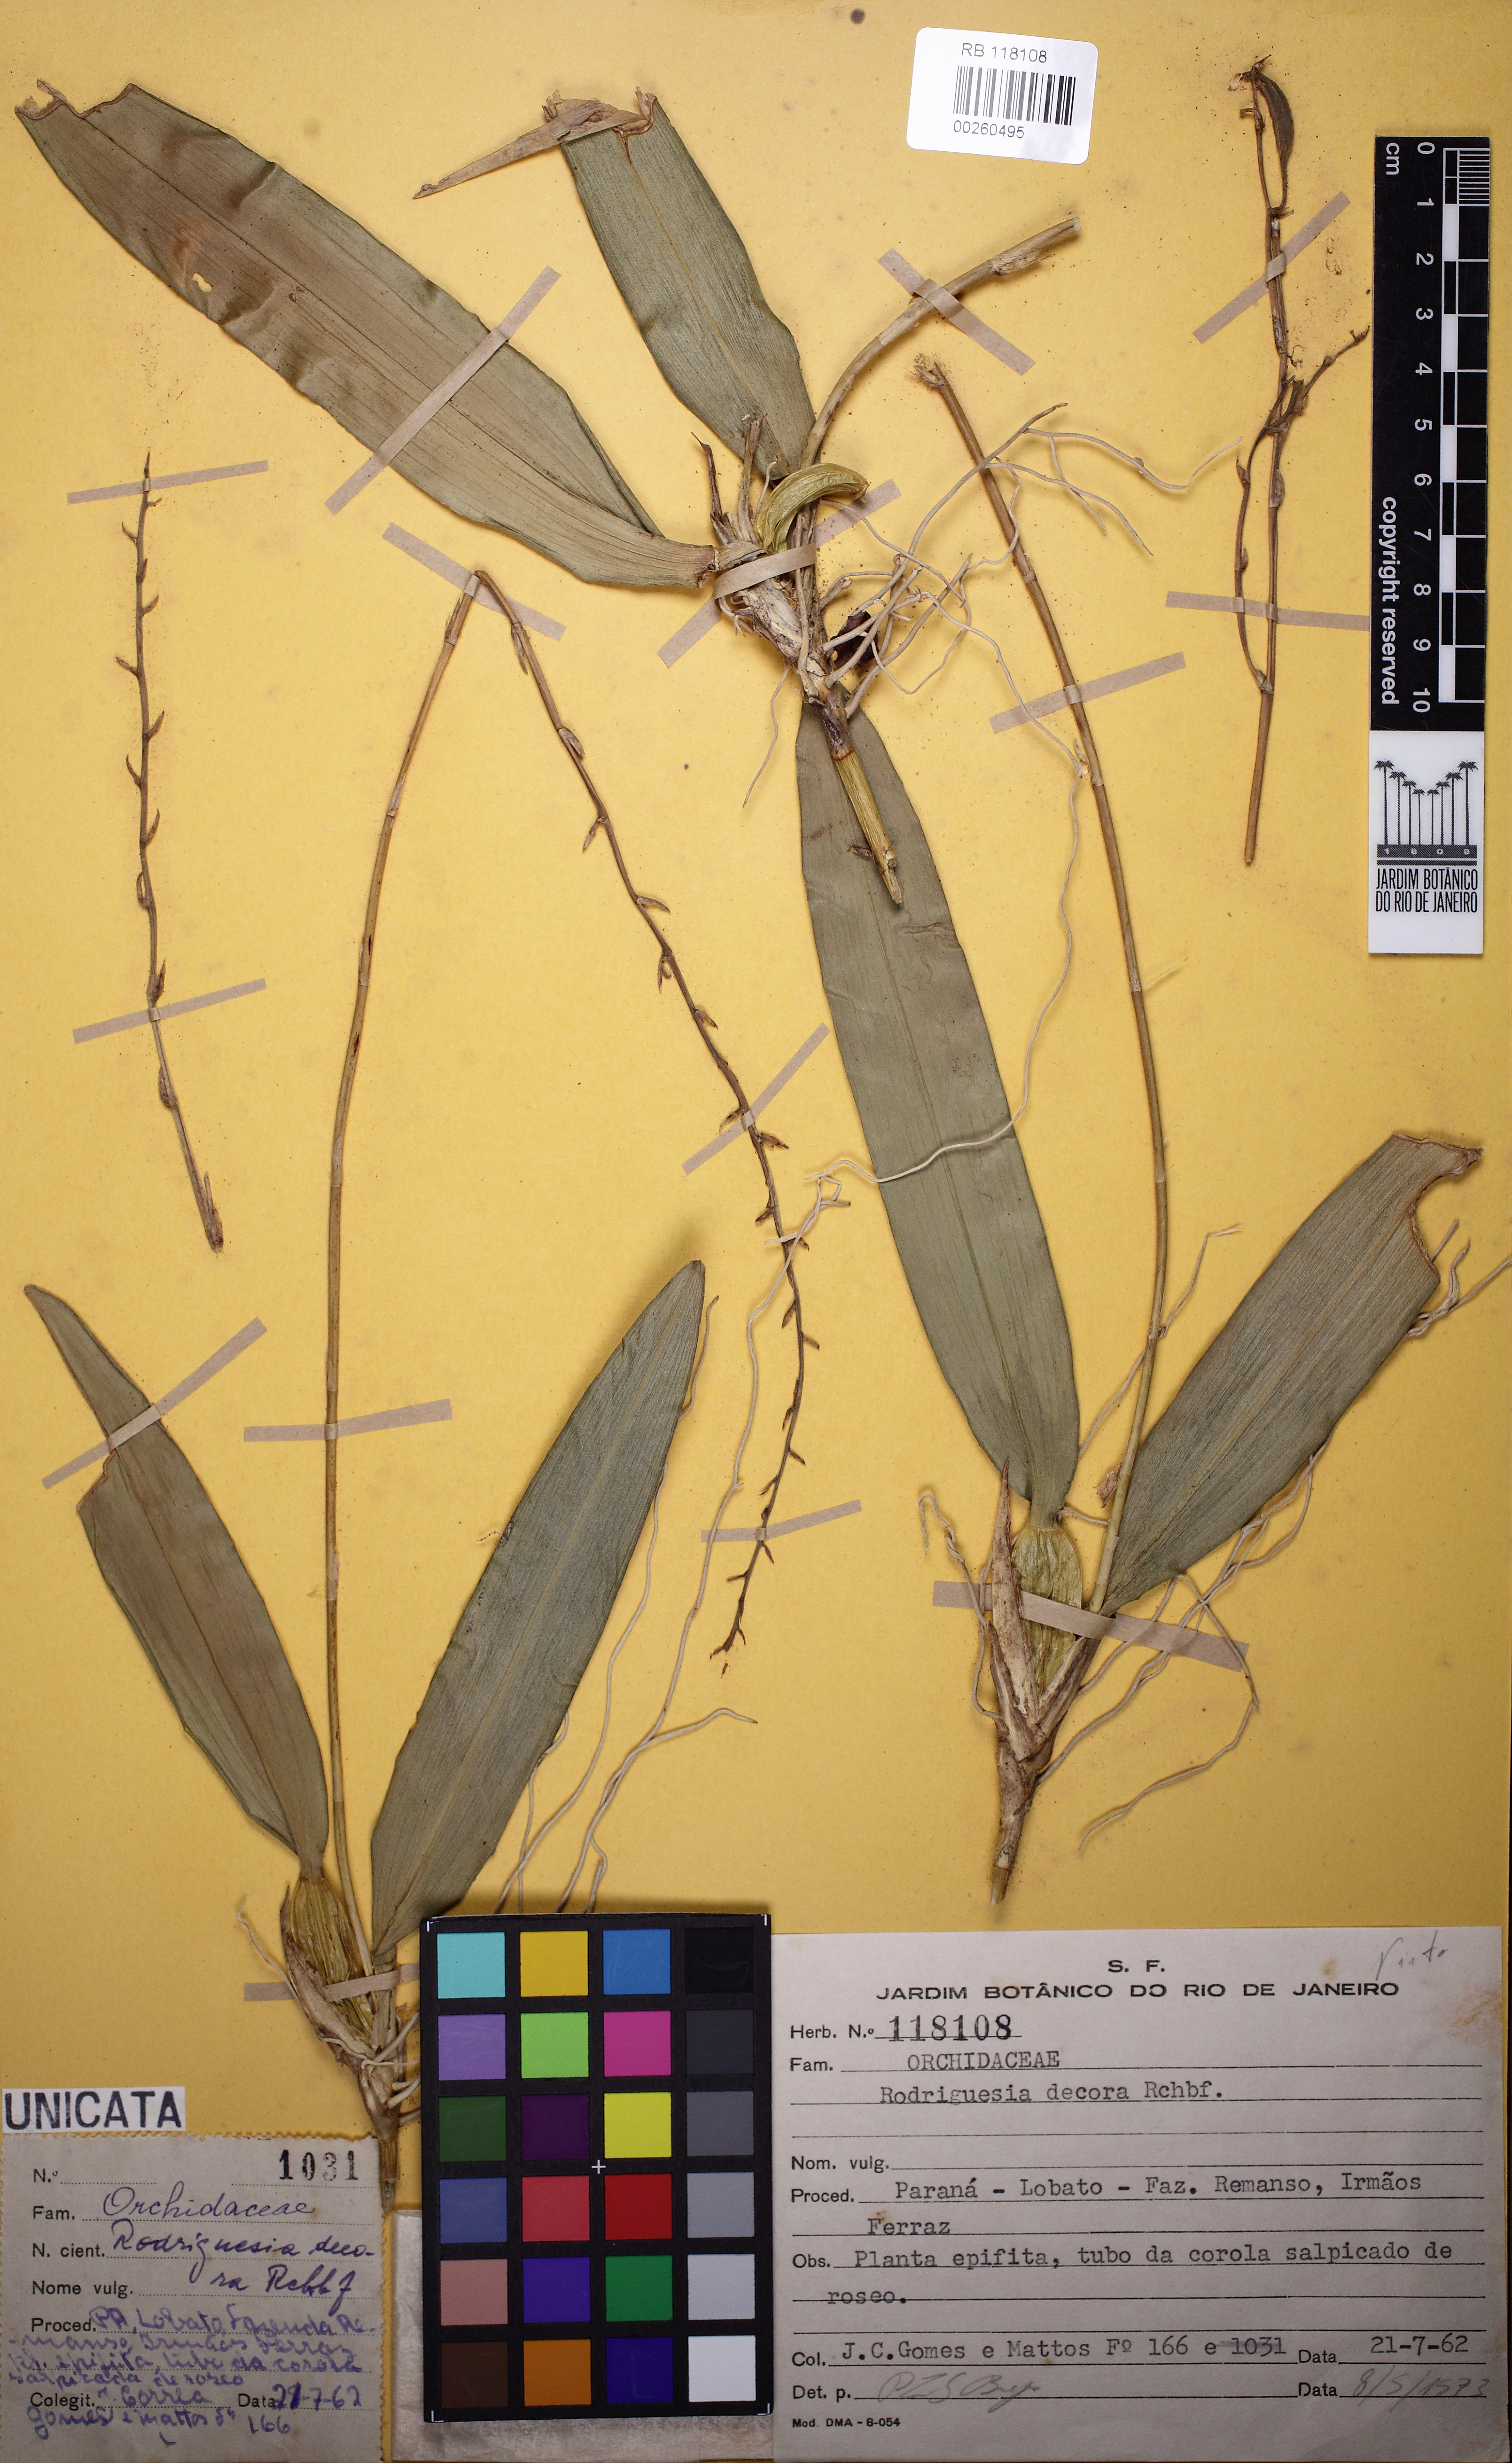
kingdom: Plantae
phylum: Tracheophyta
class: Liliopsida
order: Asparagales
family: Orchidaceae
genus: Rodriguezia
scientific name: Rodriguezia decora
